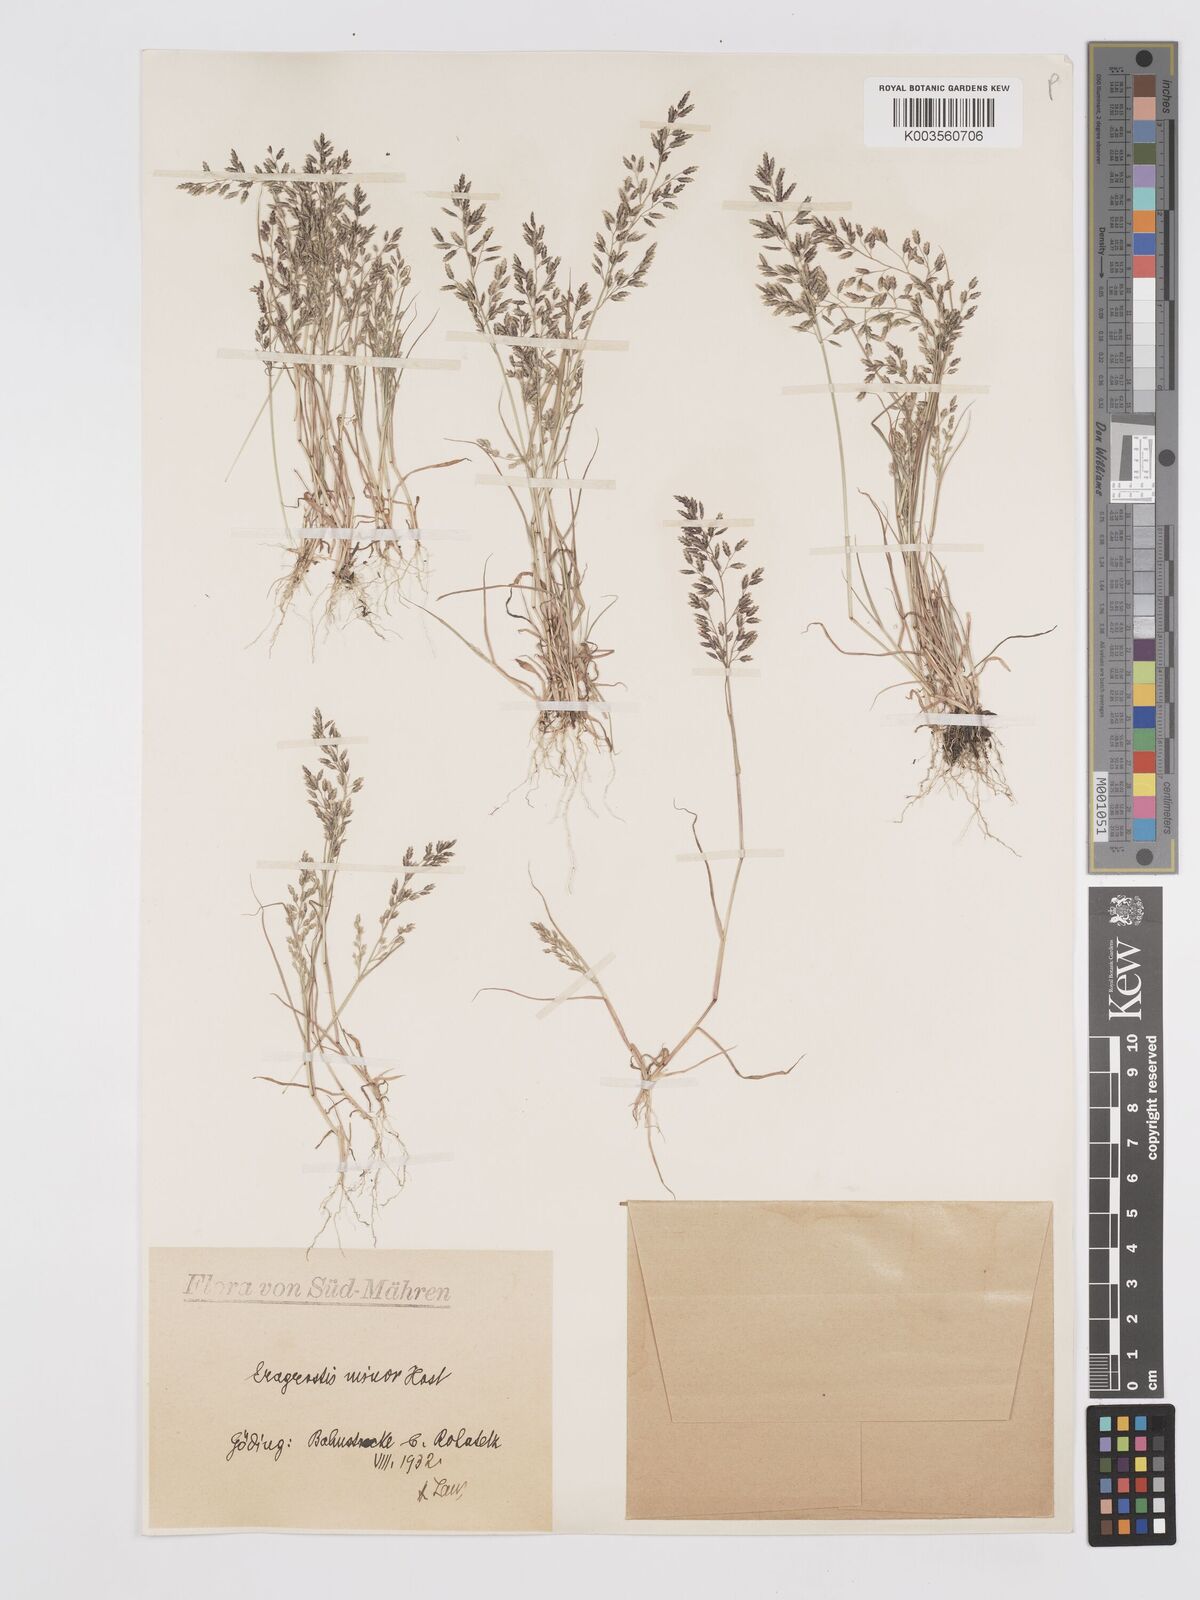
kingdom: Plantae
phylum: Tracheophyta
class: Liliopsida
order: Poales
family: Poaceae
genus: Eragrostis
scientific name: Eragrostis minor
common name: Small love-grass
